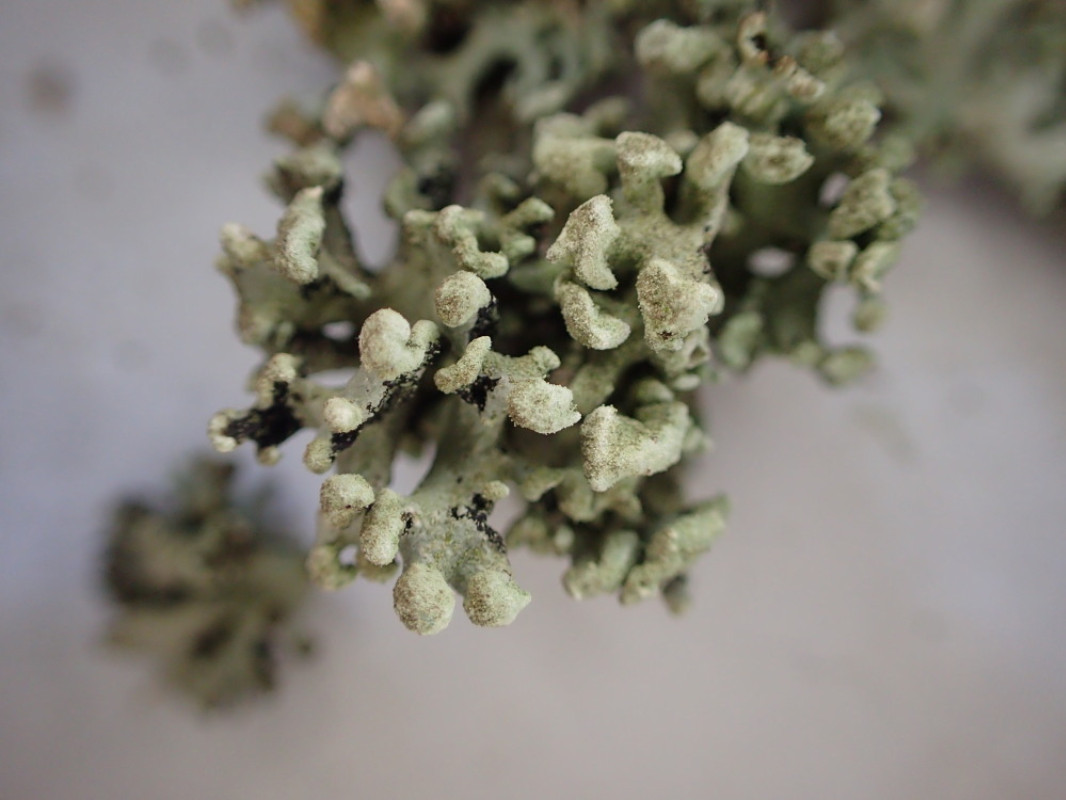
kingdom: Fungi
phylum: Ascomycota
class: Lecanoromycetes
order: Lecanorales
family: Parmeliaceae
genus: Hypogymnia
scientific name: Hypogymnia tubulosa
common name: finger-kvistlav
